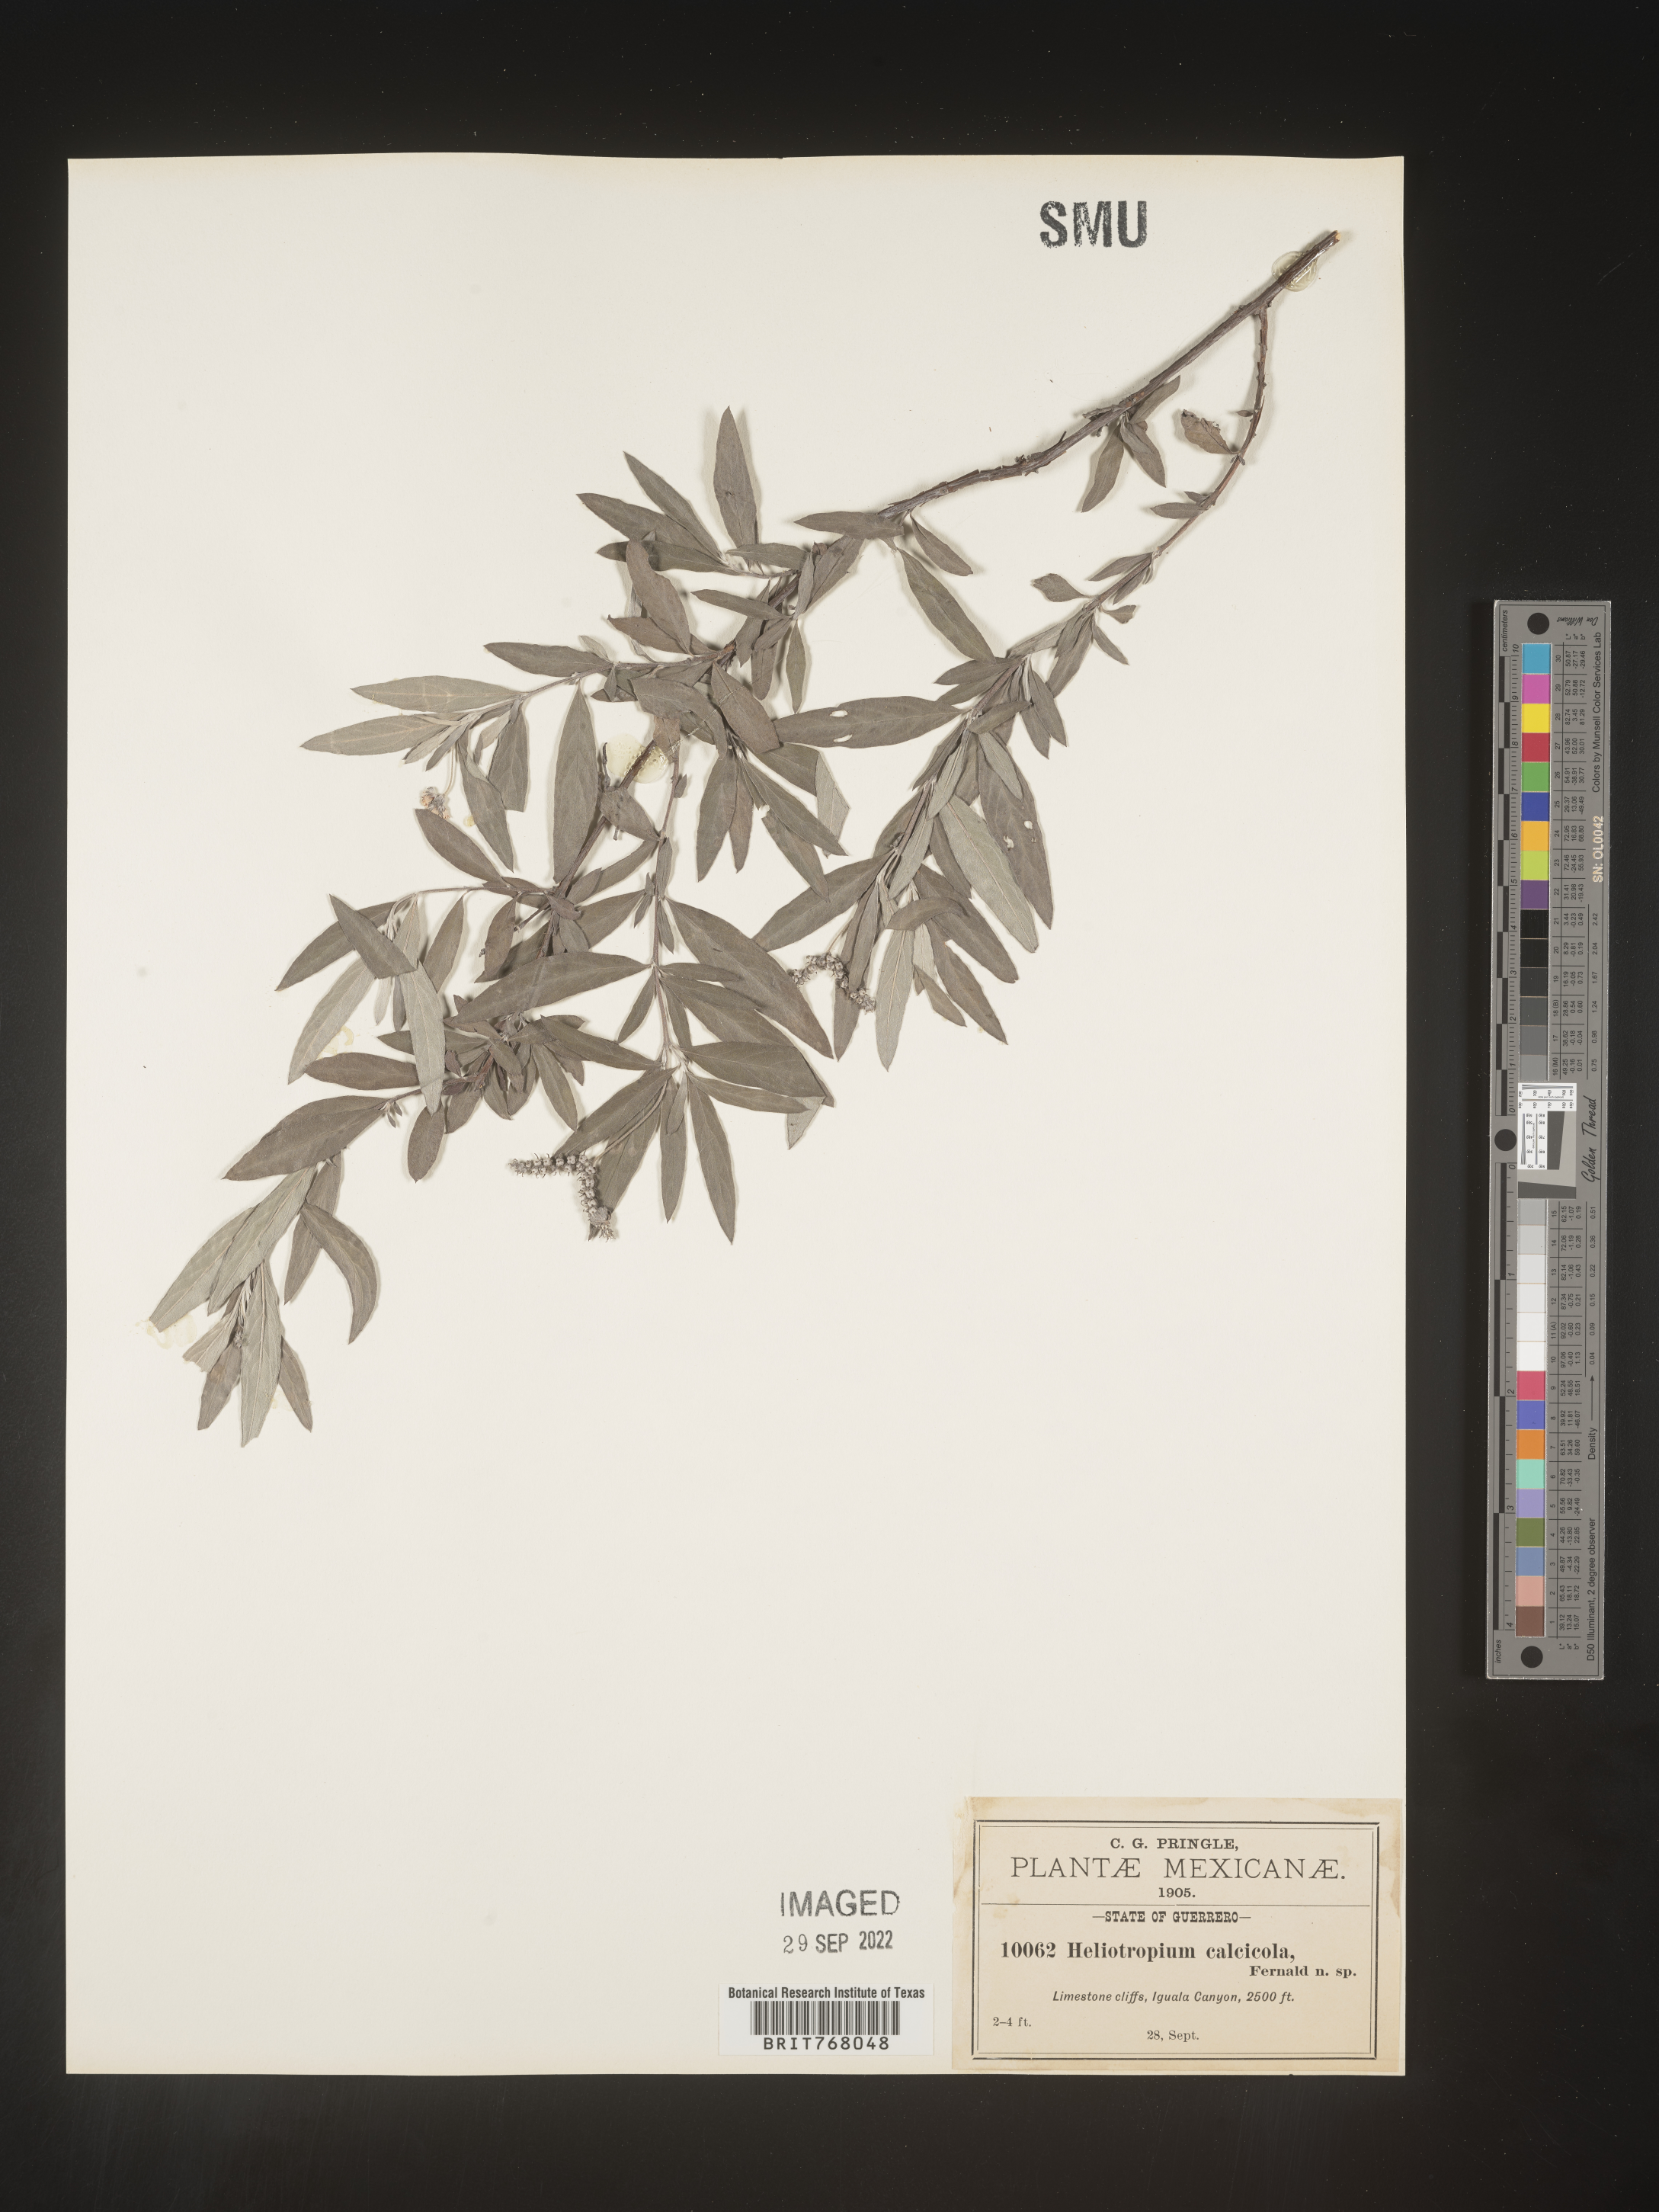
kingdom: Plantae
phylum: Tracheophyta
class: Magnoliopsida
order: Boraginales
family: Heliotropiaceae
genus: Heliotropium
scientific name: Heliotropium
